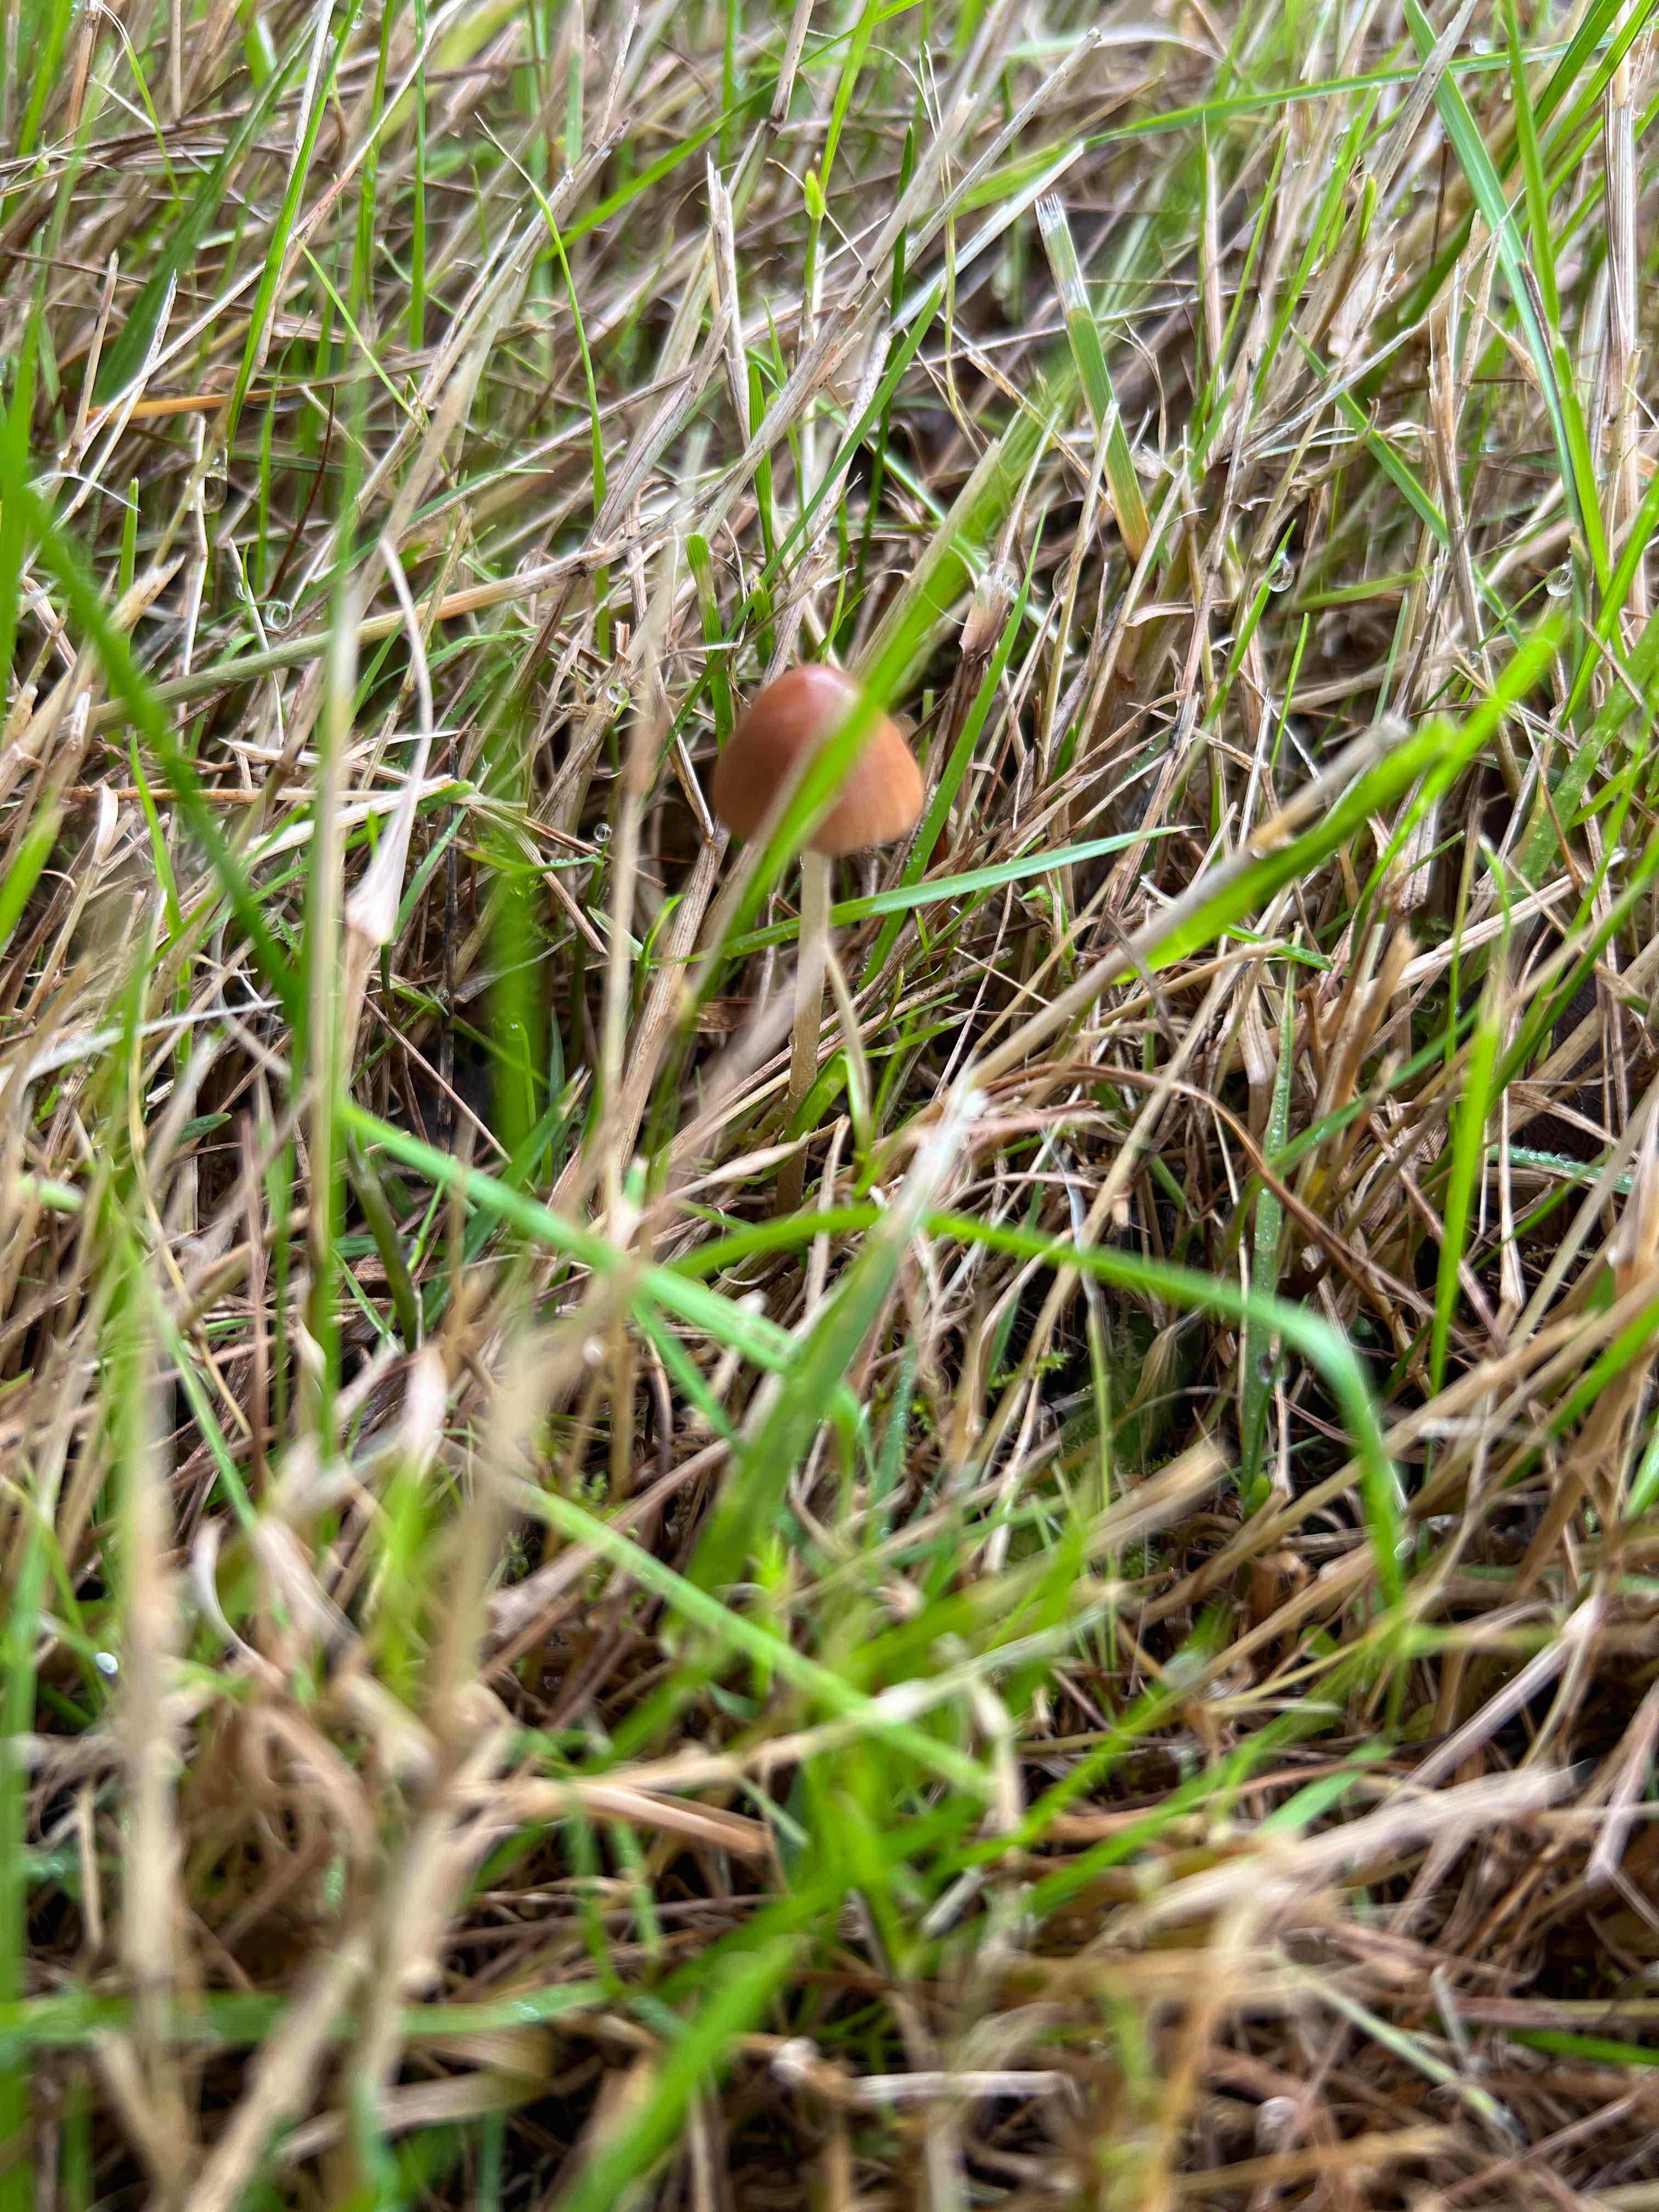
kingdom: Fungi
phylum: Basidiomycota
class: Agaricomycetes
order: Agaricales
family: Bolbitiaceae
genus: Conocybe
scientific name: Conocybe
